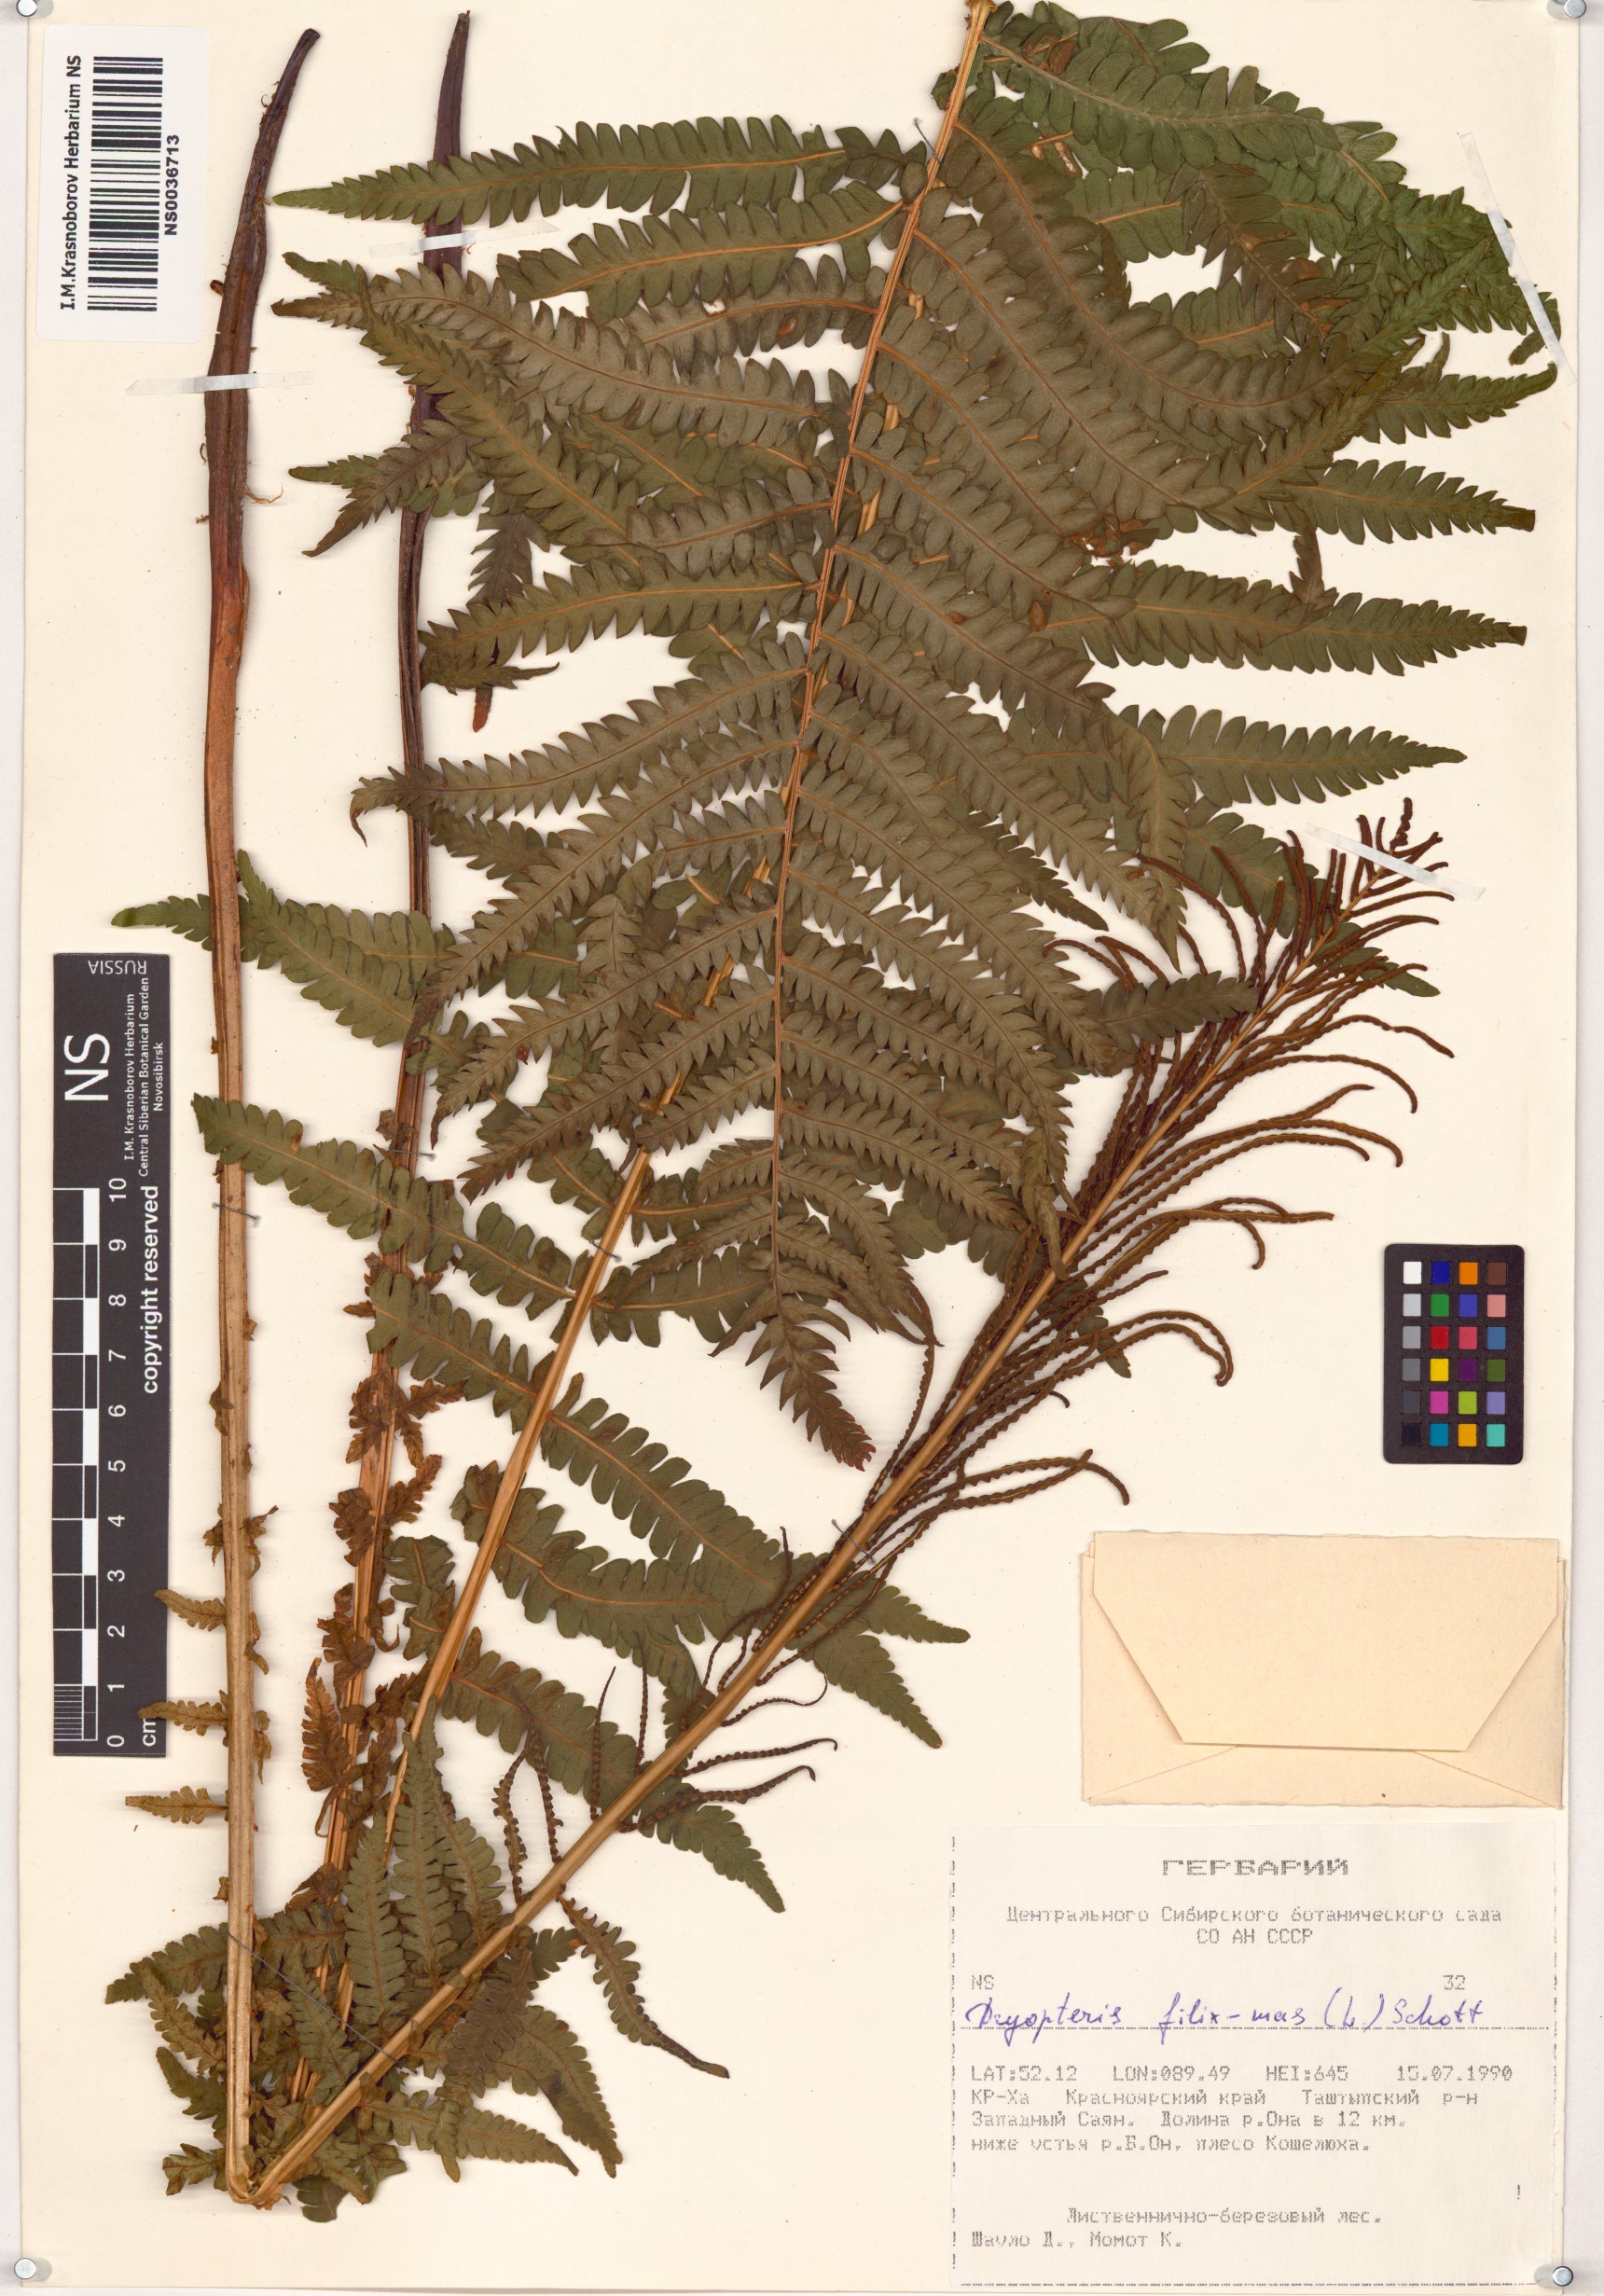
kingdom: Plantae
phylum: Tracheophyta
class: Polypodiopsida
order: Polypodiales
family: Dryopteridaceae
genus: Dryopteris
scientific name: Dryopteris filix-mas
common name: Male fern
